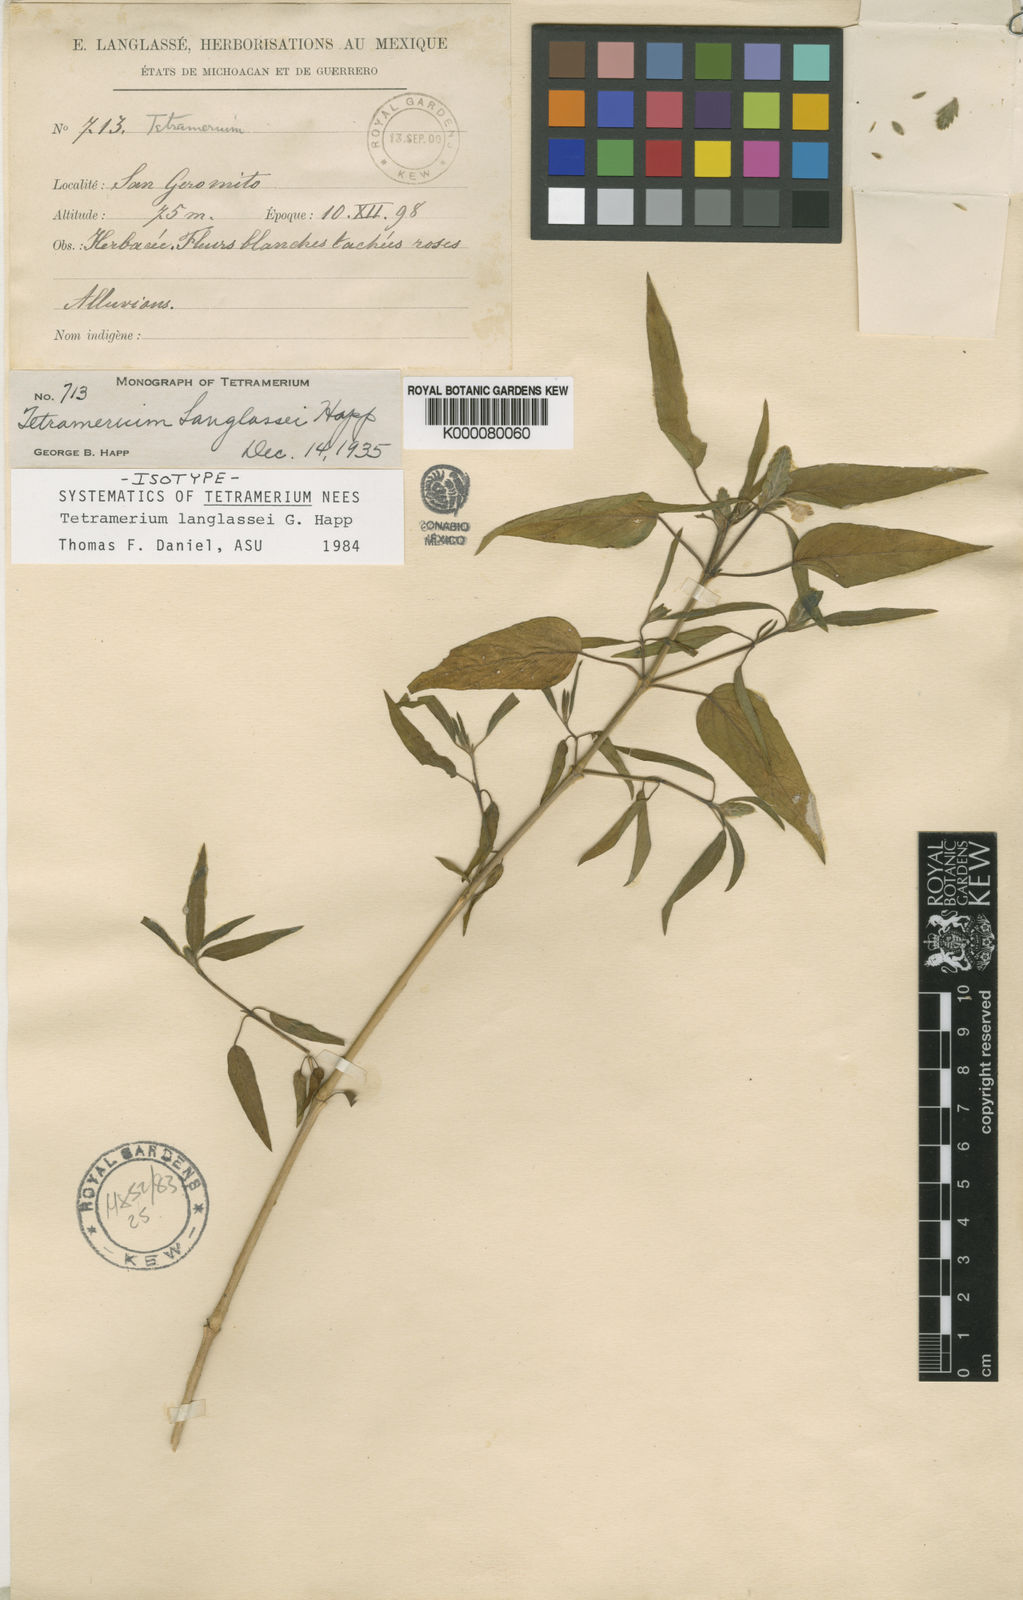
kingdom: Plantae
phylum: Tracheophyta
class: Magnoliopsida
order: Lamiales
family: Acanthaceae
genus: Tetramerium
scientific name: Tetramerium
